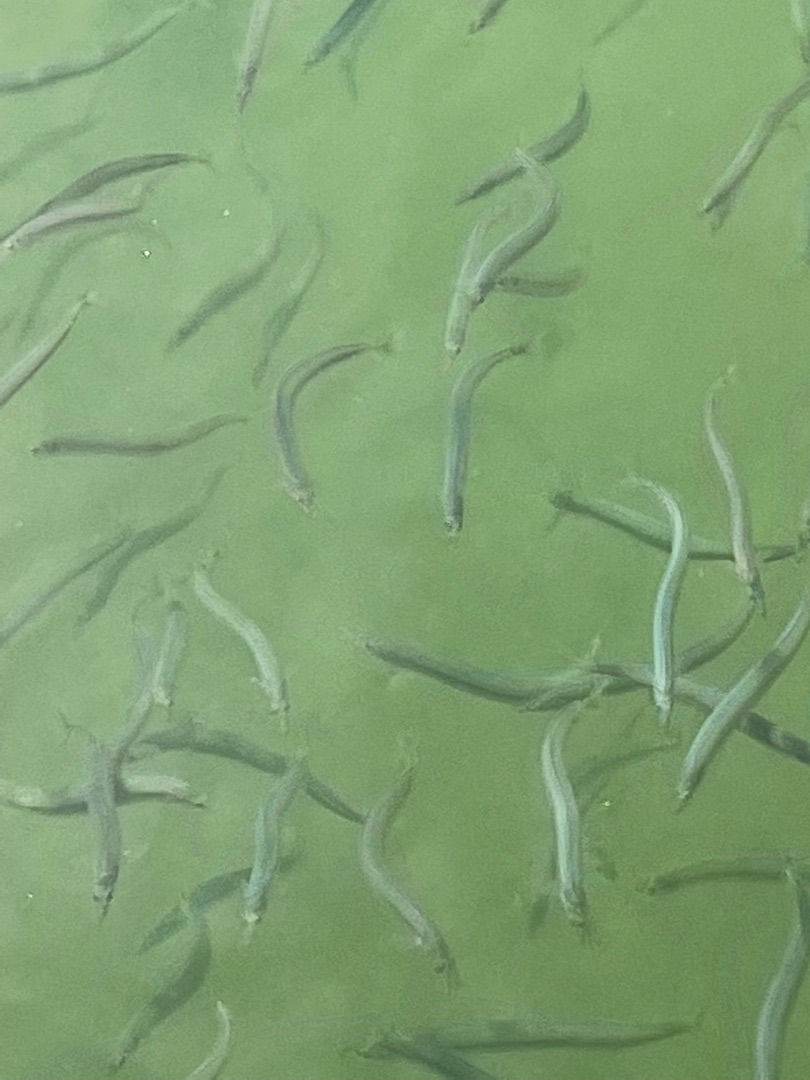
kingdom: Animalia
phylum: Chordata
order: Perciformes
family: Ammodytidae
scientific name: Ammodytidae
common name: Tobisfamilien
